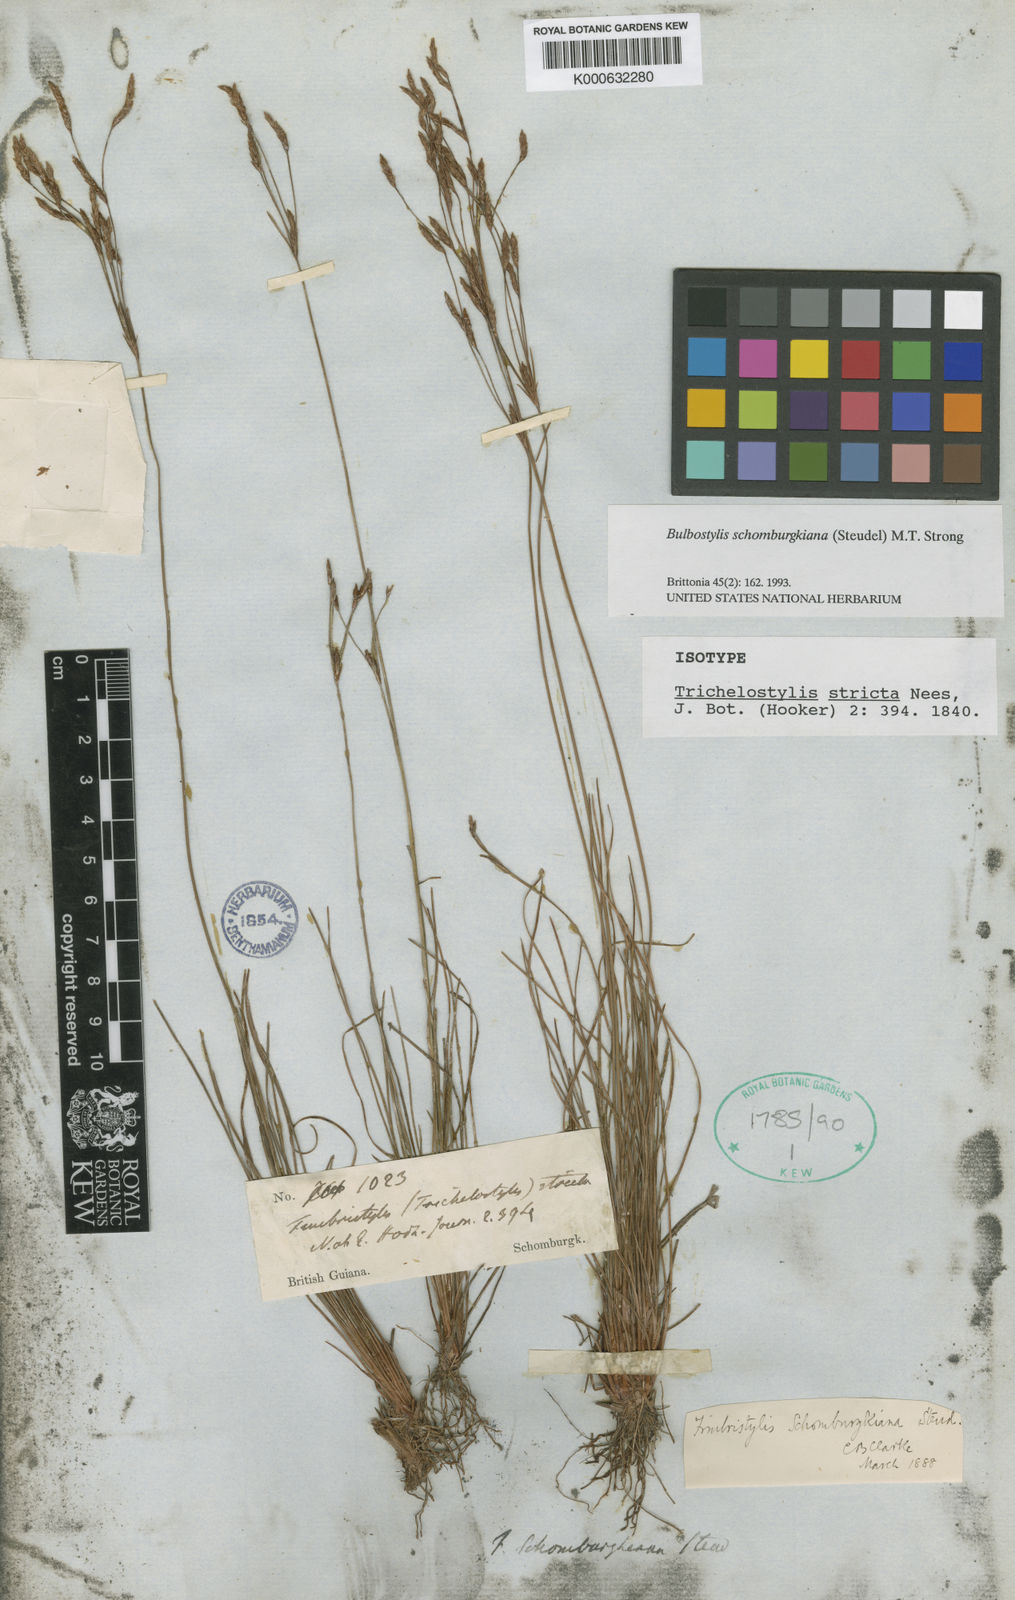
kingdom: Plantae
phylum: Tracheophyta
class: Liliopsida
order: Poales
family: Cyperaceae
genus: Bulbostylis
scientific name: Bulbostylis schomburgkiana
